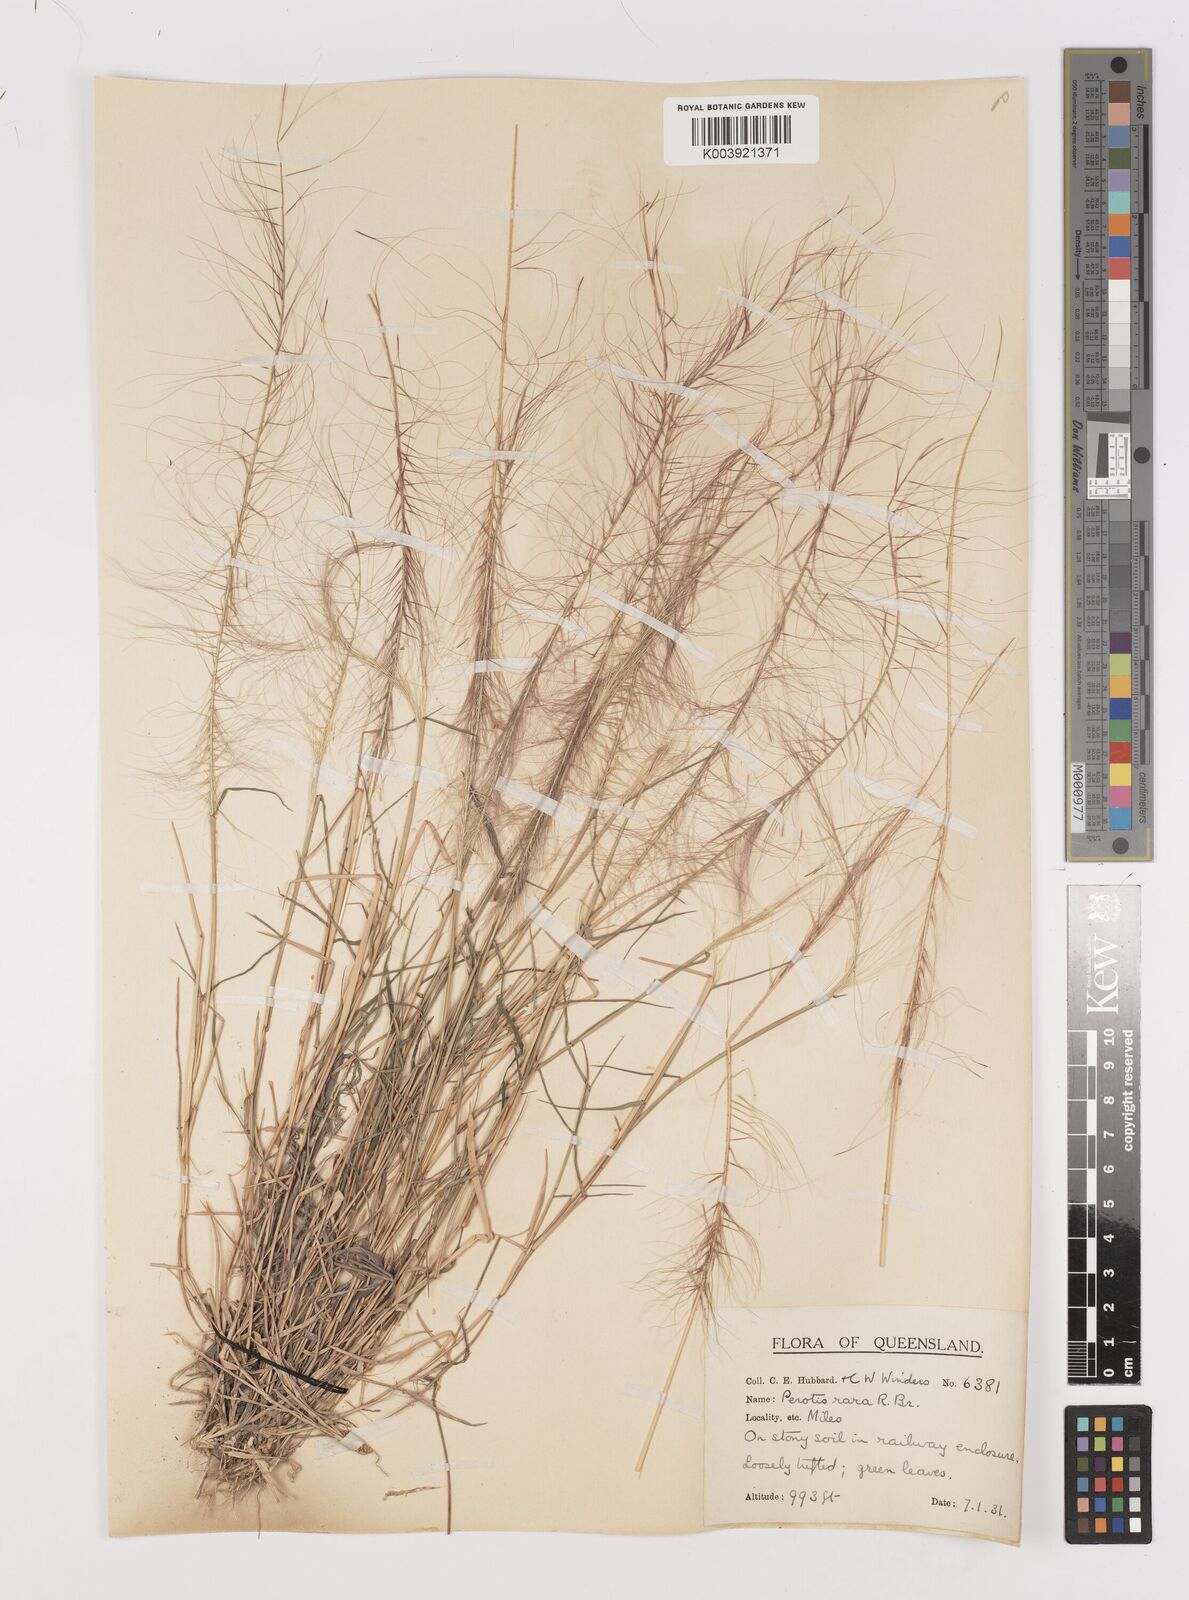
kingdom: Plantae
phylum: Tracheophyta
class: Liliopsida
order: Poales
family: Poaceae
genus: Perotis
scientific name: Perotis rara
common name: Comet grass
